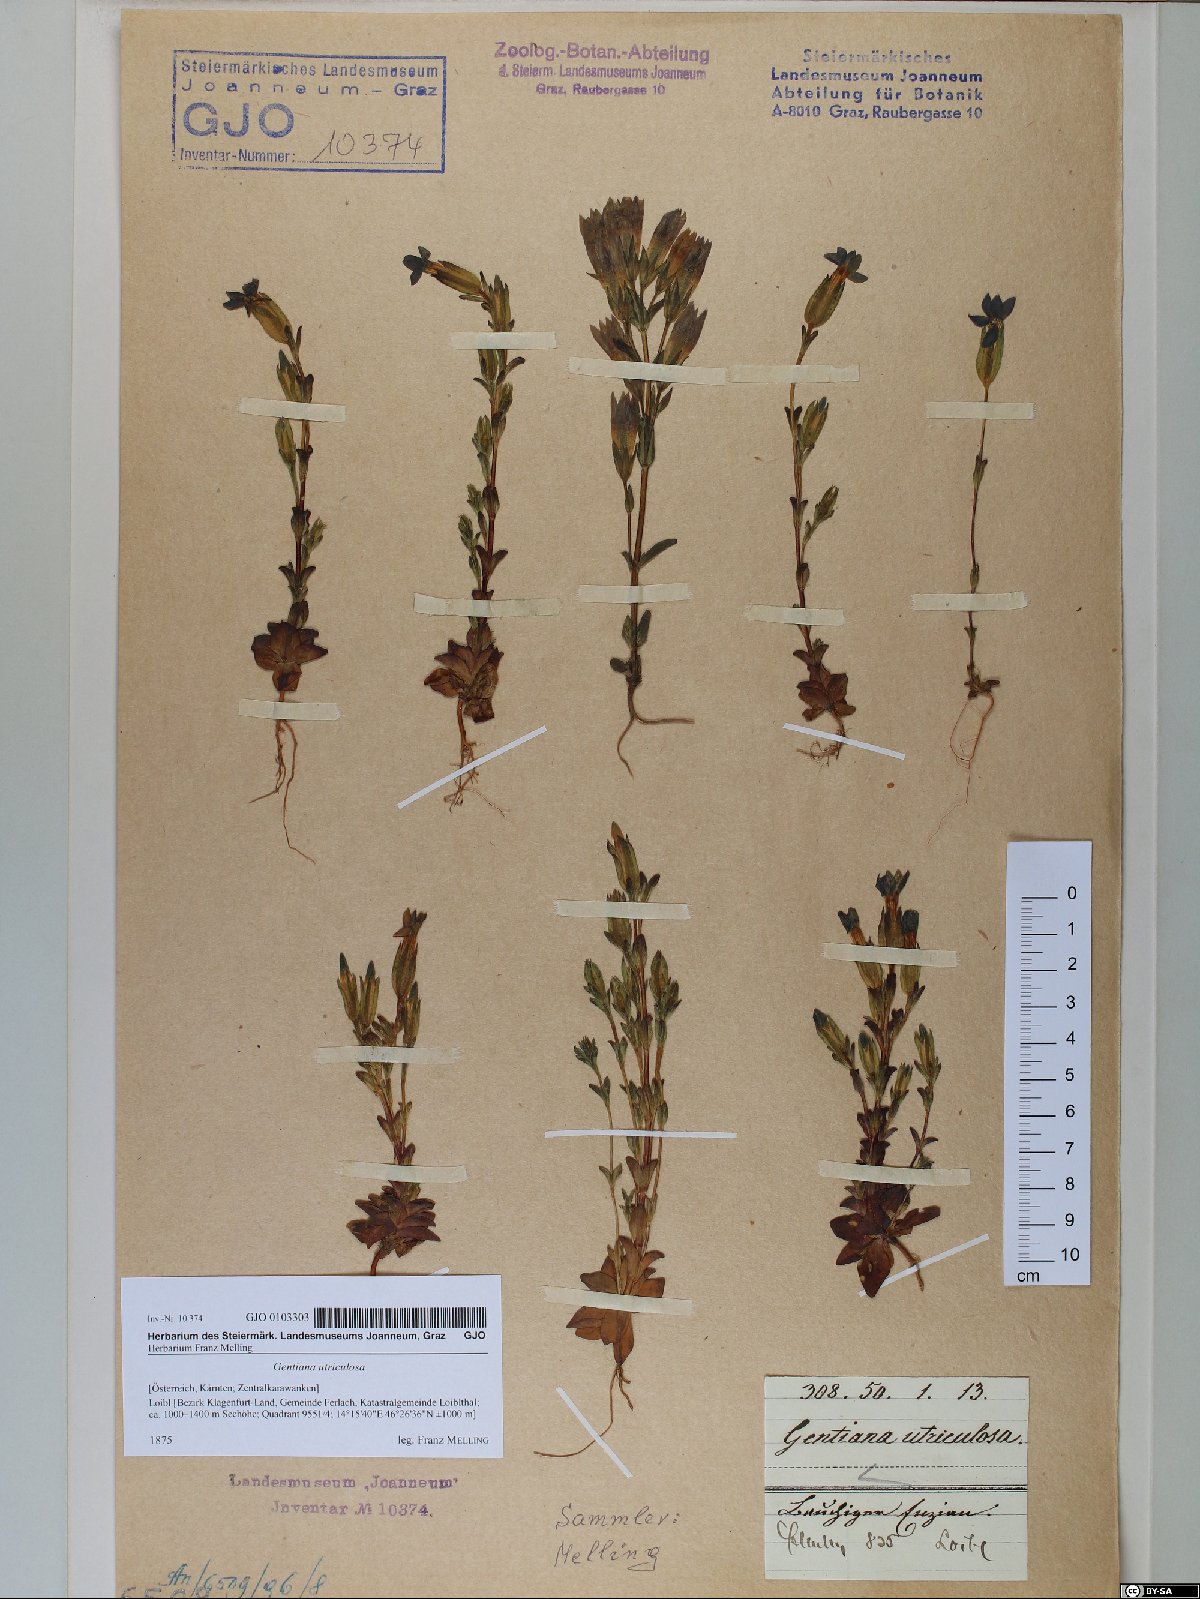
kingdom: Plantae
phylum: Tracheophyta
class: Magnoliopsida
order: Gentianales
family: Gentianaceae
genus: Gentiana
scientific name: Gentiana utriculosa
